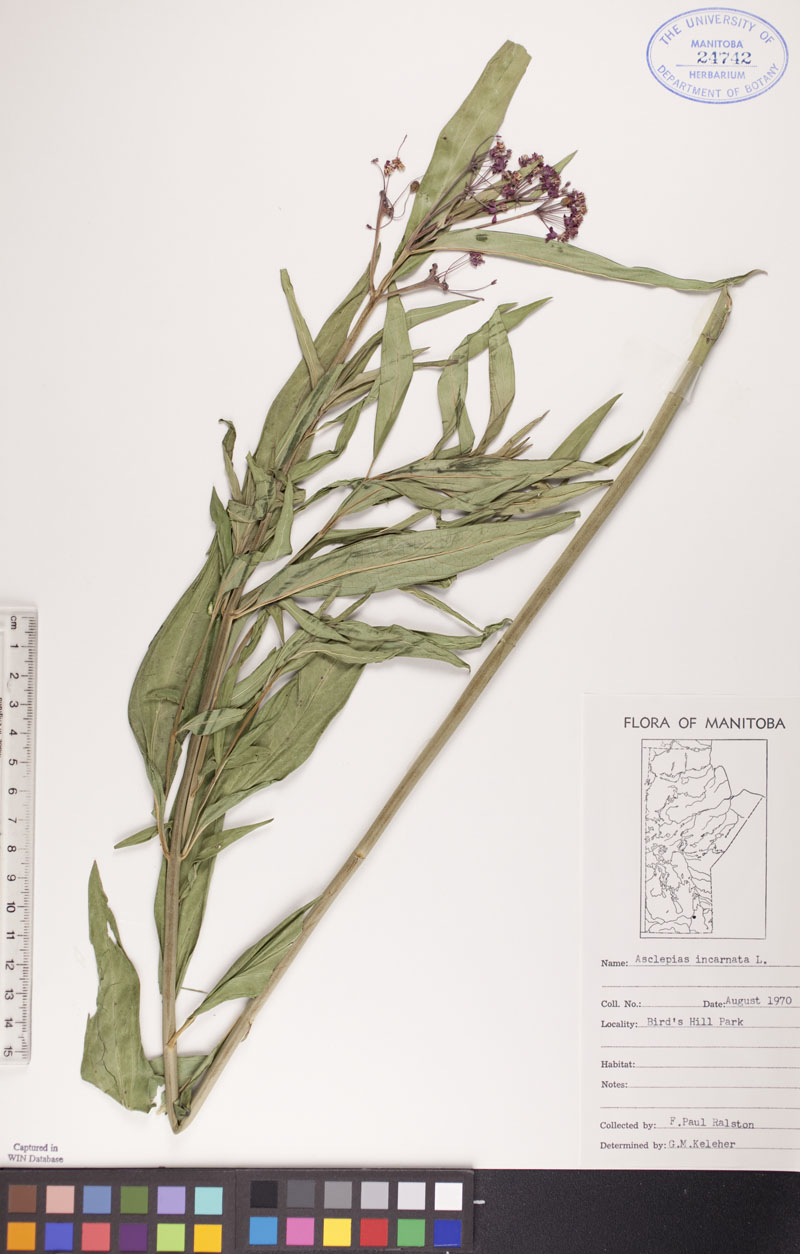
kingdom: Plantae
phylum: Tracheophyta
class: Magnoliopsida
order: Gentianales
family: Apocynaceae
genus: Asclepias
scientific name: Asclepias incarnata
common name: Swamp milkweed
